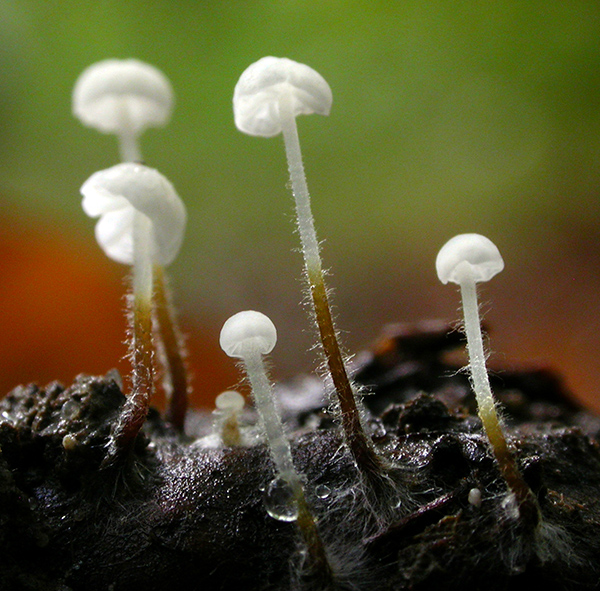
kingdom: Fungi
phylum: Basidiomycota
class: Agaricomycetes
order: Agaricales
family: Physalacriaceae
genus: Rhizomarasmius
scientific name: Rhizomarasmius setosus
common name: bøgeblads-bruskhat
